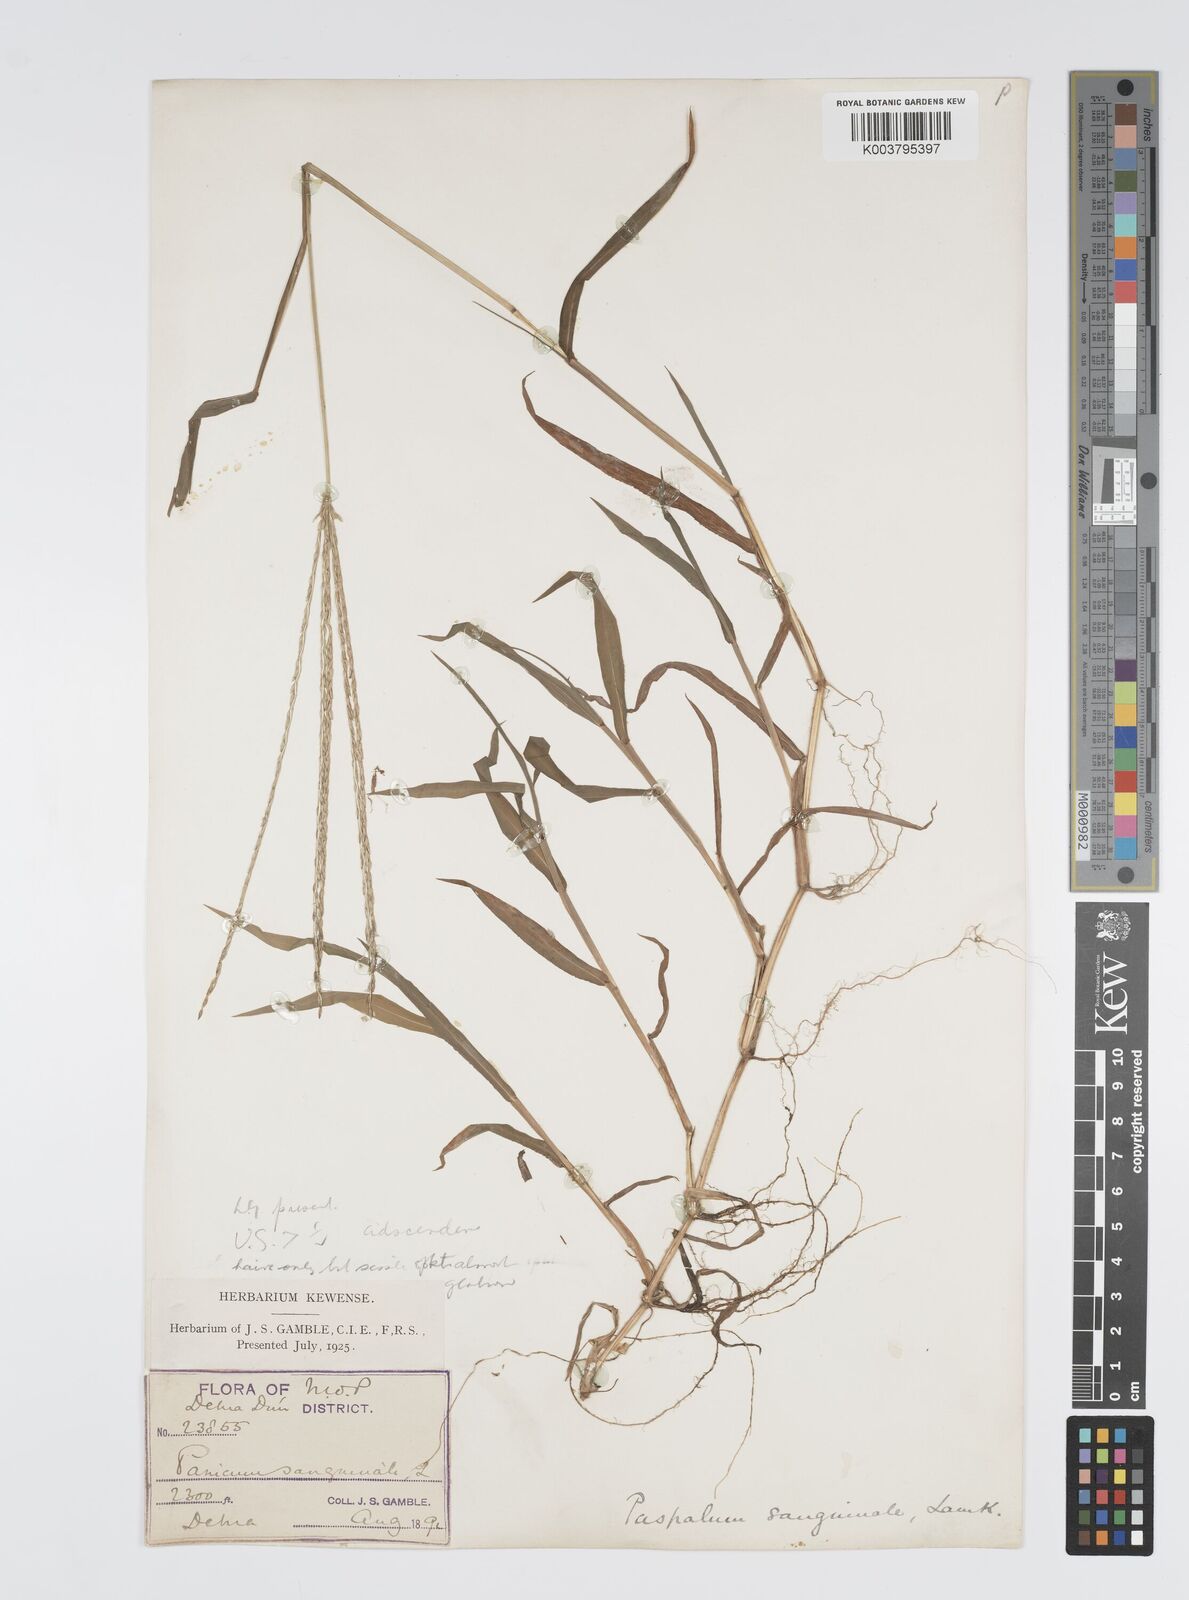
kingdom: Plantae
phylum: Tracheophyta
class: Liliopsida
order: Poales
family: Poaceae
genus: Digitaria
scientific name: Digitaria ciliaris
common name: Tropical finger-grass
